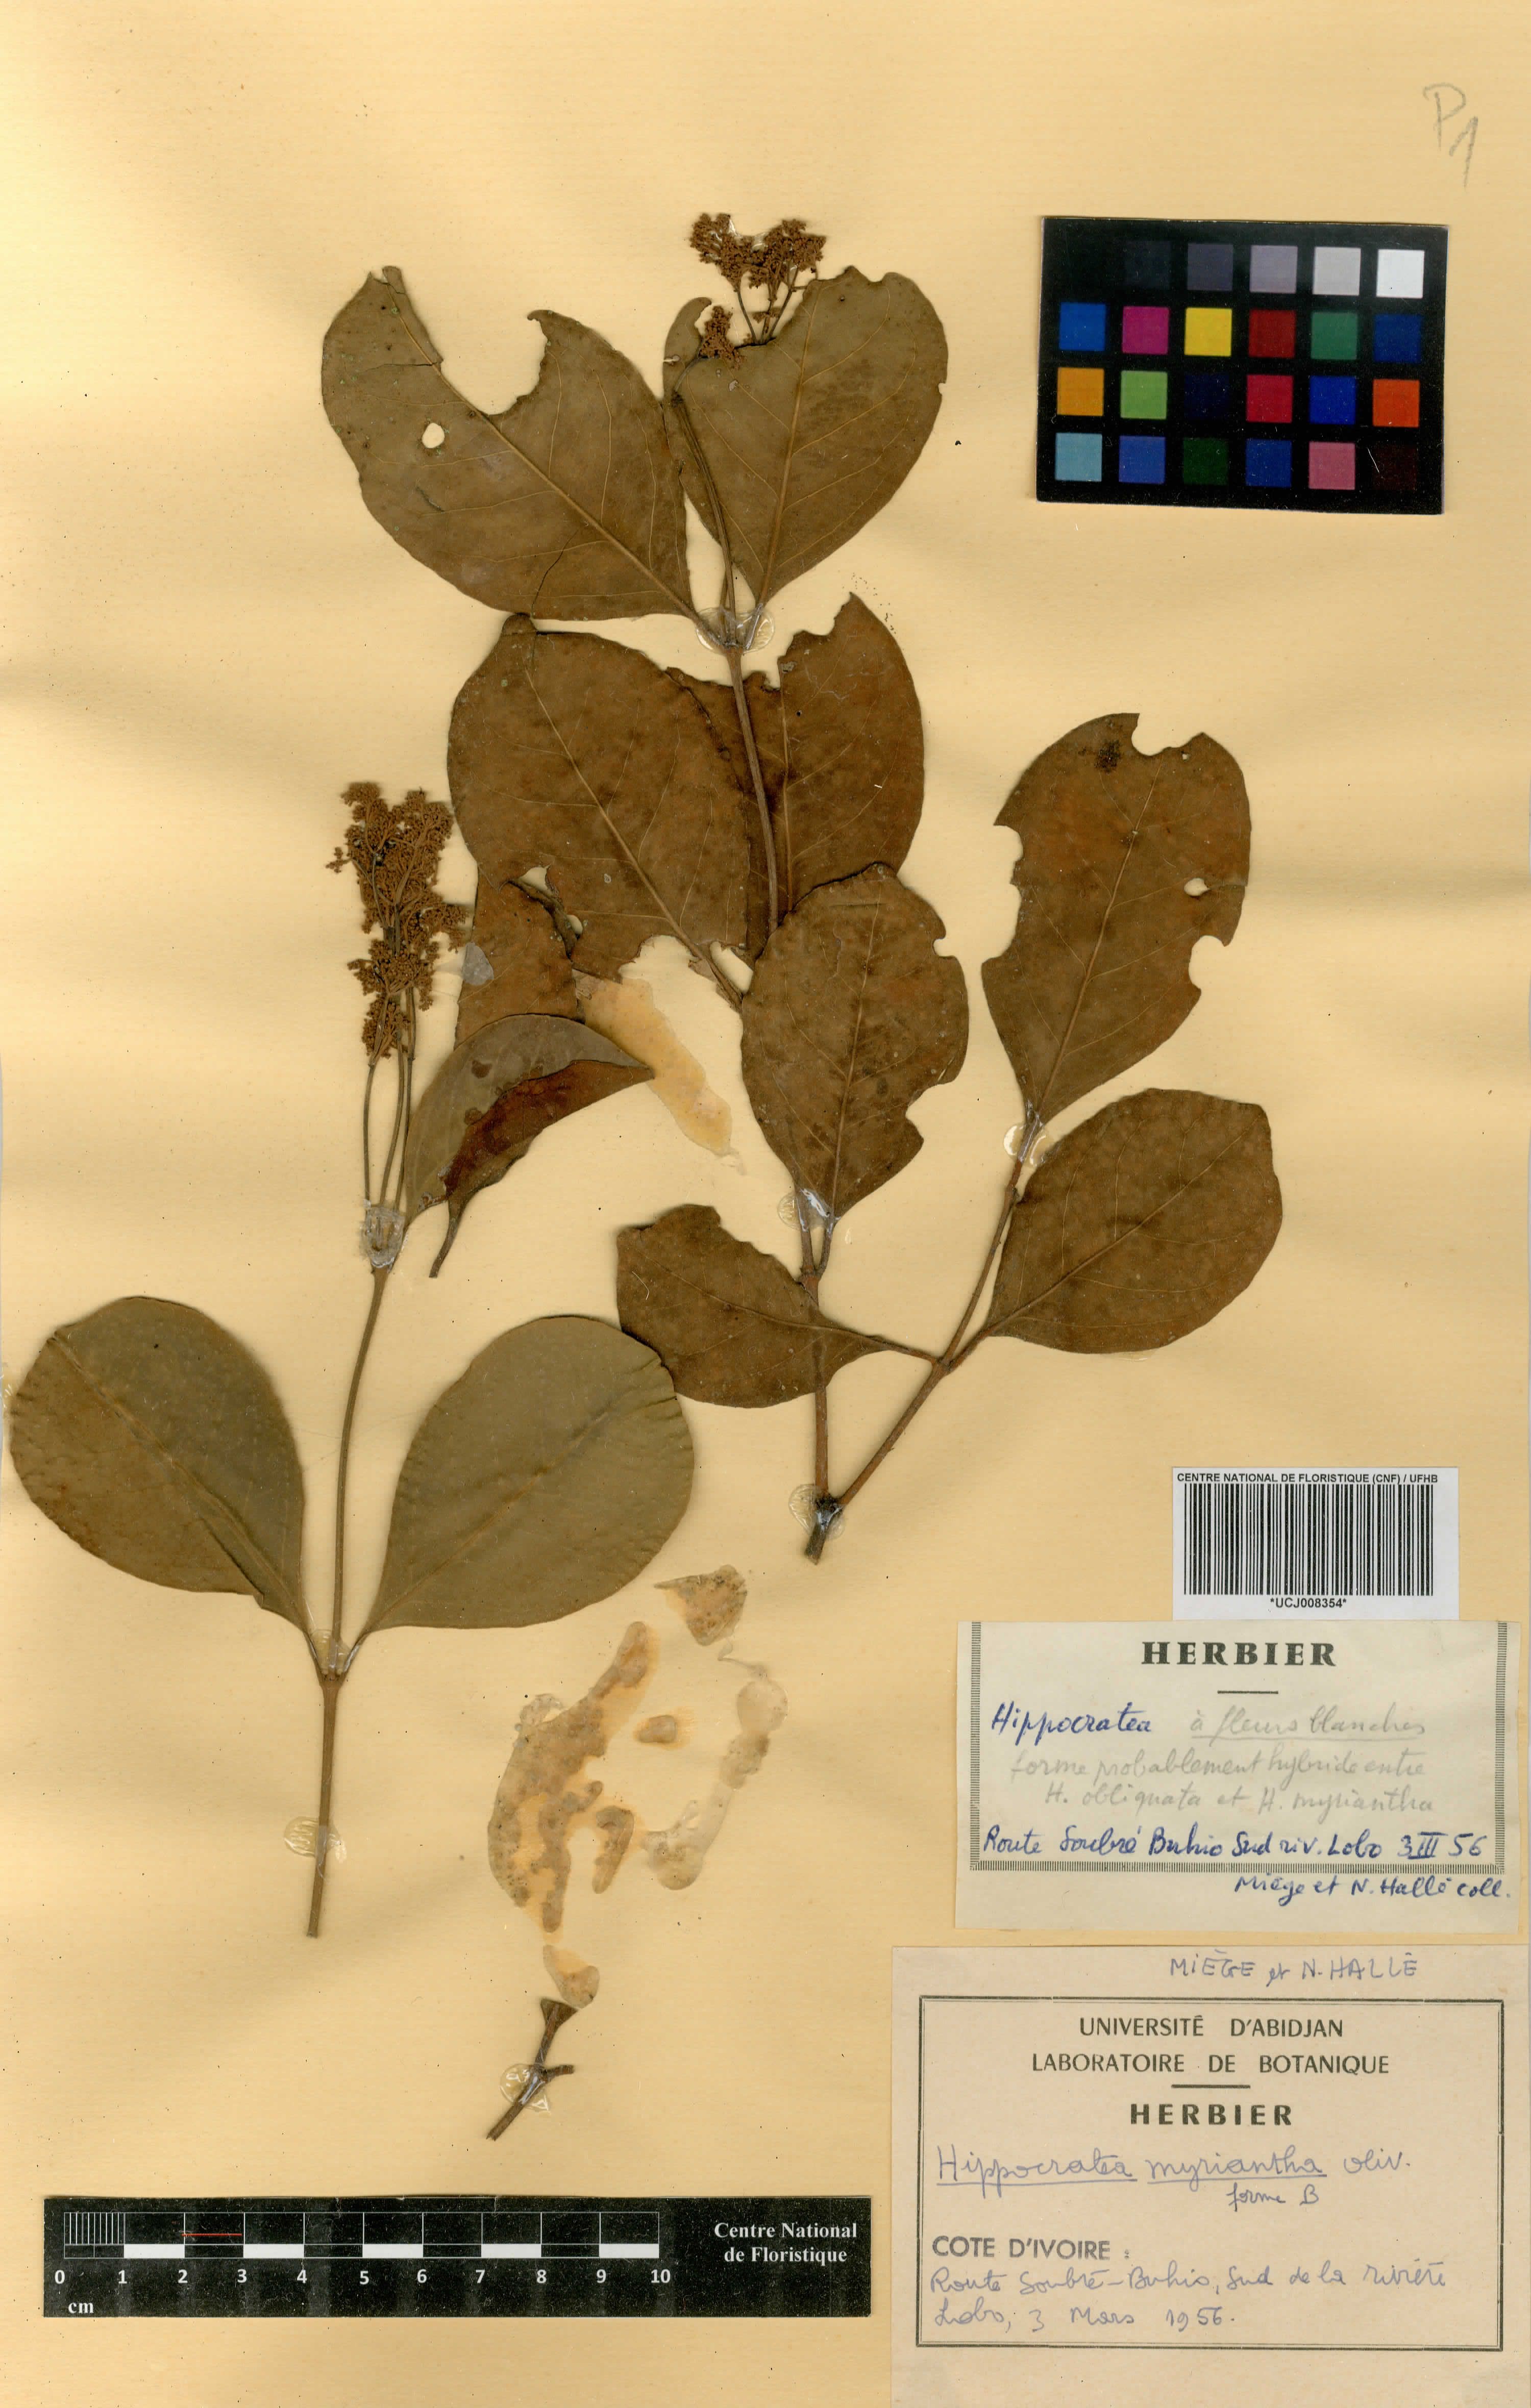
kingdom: Plantae
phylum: Tracheophyta
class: Magnoliopsida
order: Celastrales
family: Celastraceae
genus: Hippocratea
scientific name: Hippocratea myriantha
